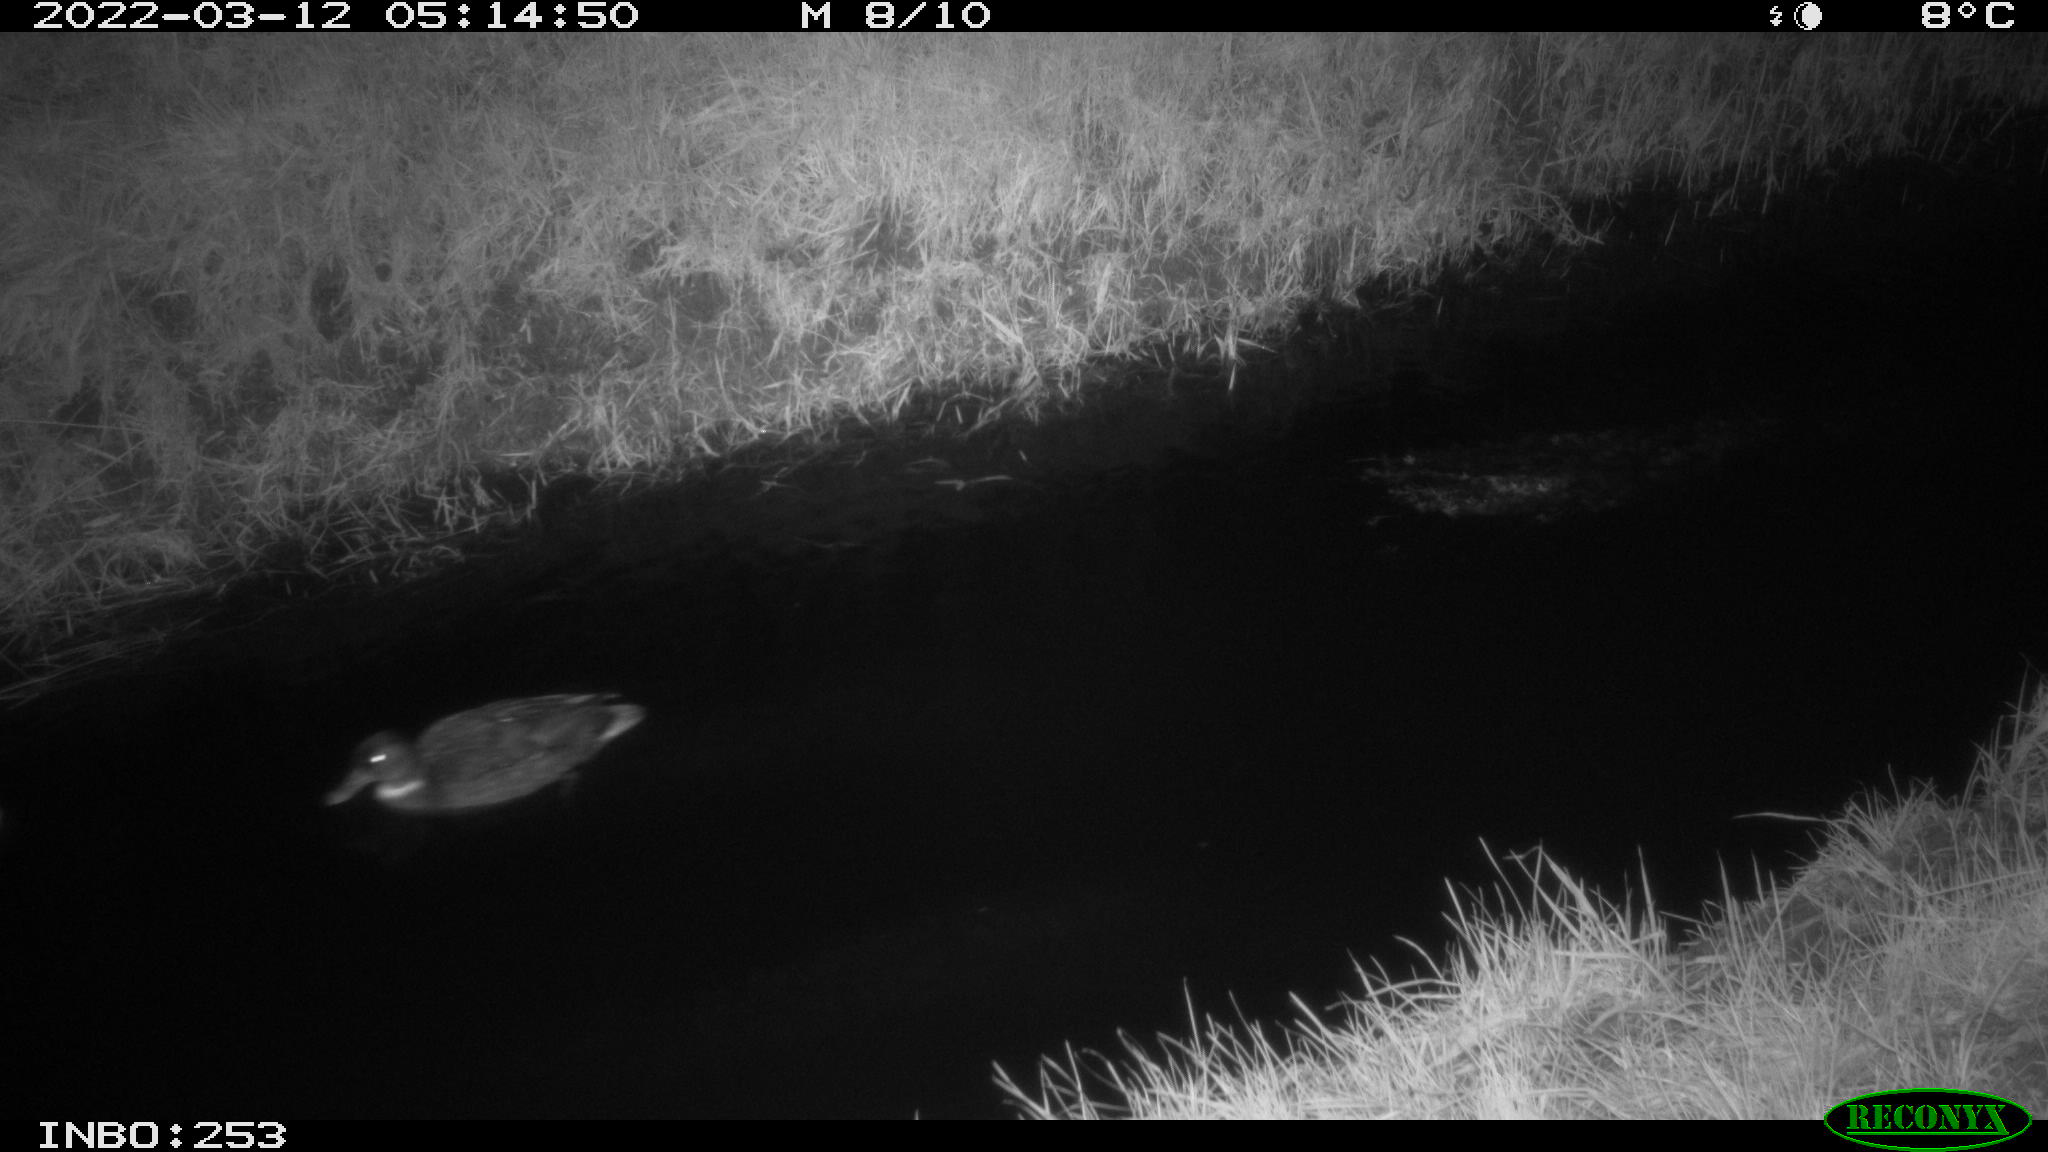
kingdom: Animalia
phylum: Chordata
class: Aves
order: Anseriformes
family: Anatidae
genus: Anas
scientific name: Anas platyrhynchos
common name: Mallard
